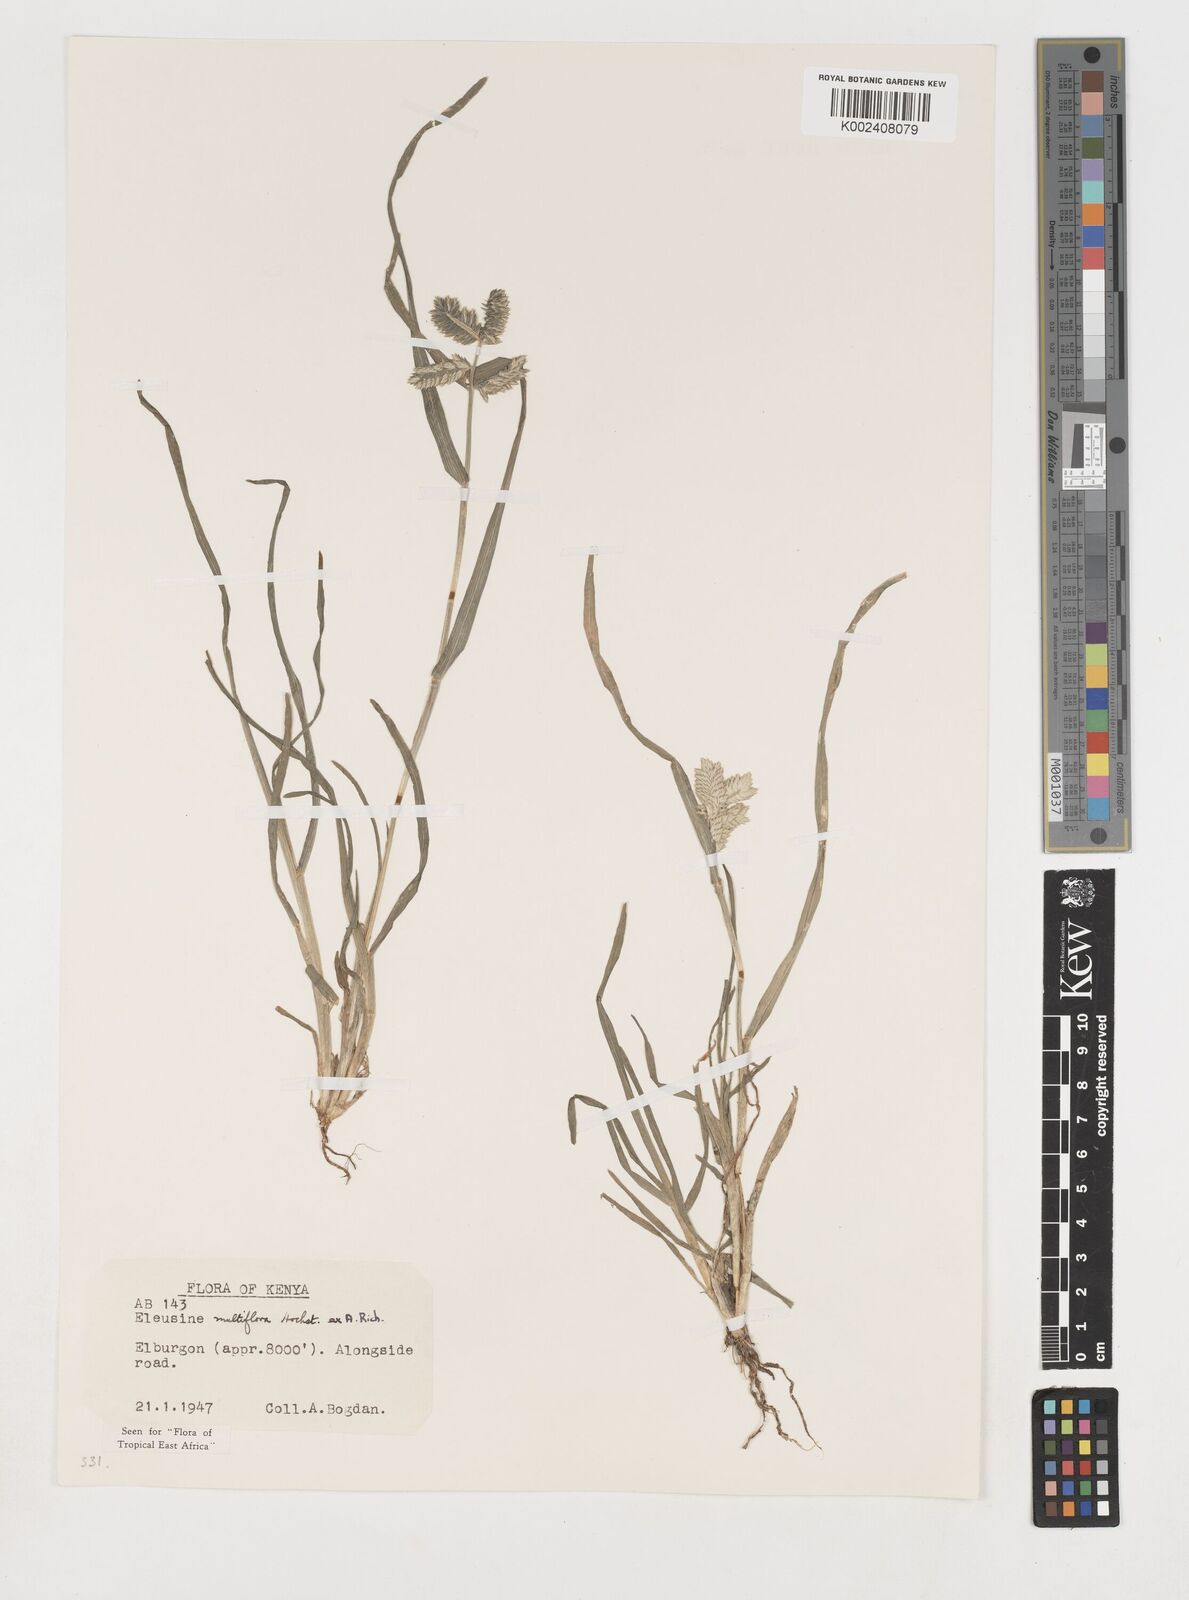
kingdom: Plantae
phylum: Tracheophyta
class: Liliopsida
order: Poales
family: Poaceae
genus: Eleusine
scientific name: Eleusine multiflora
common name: Fat-spiked yard-grass
